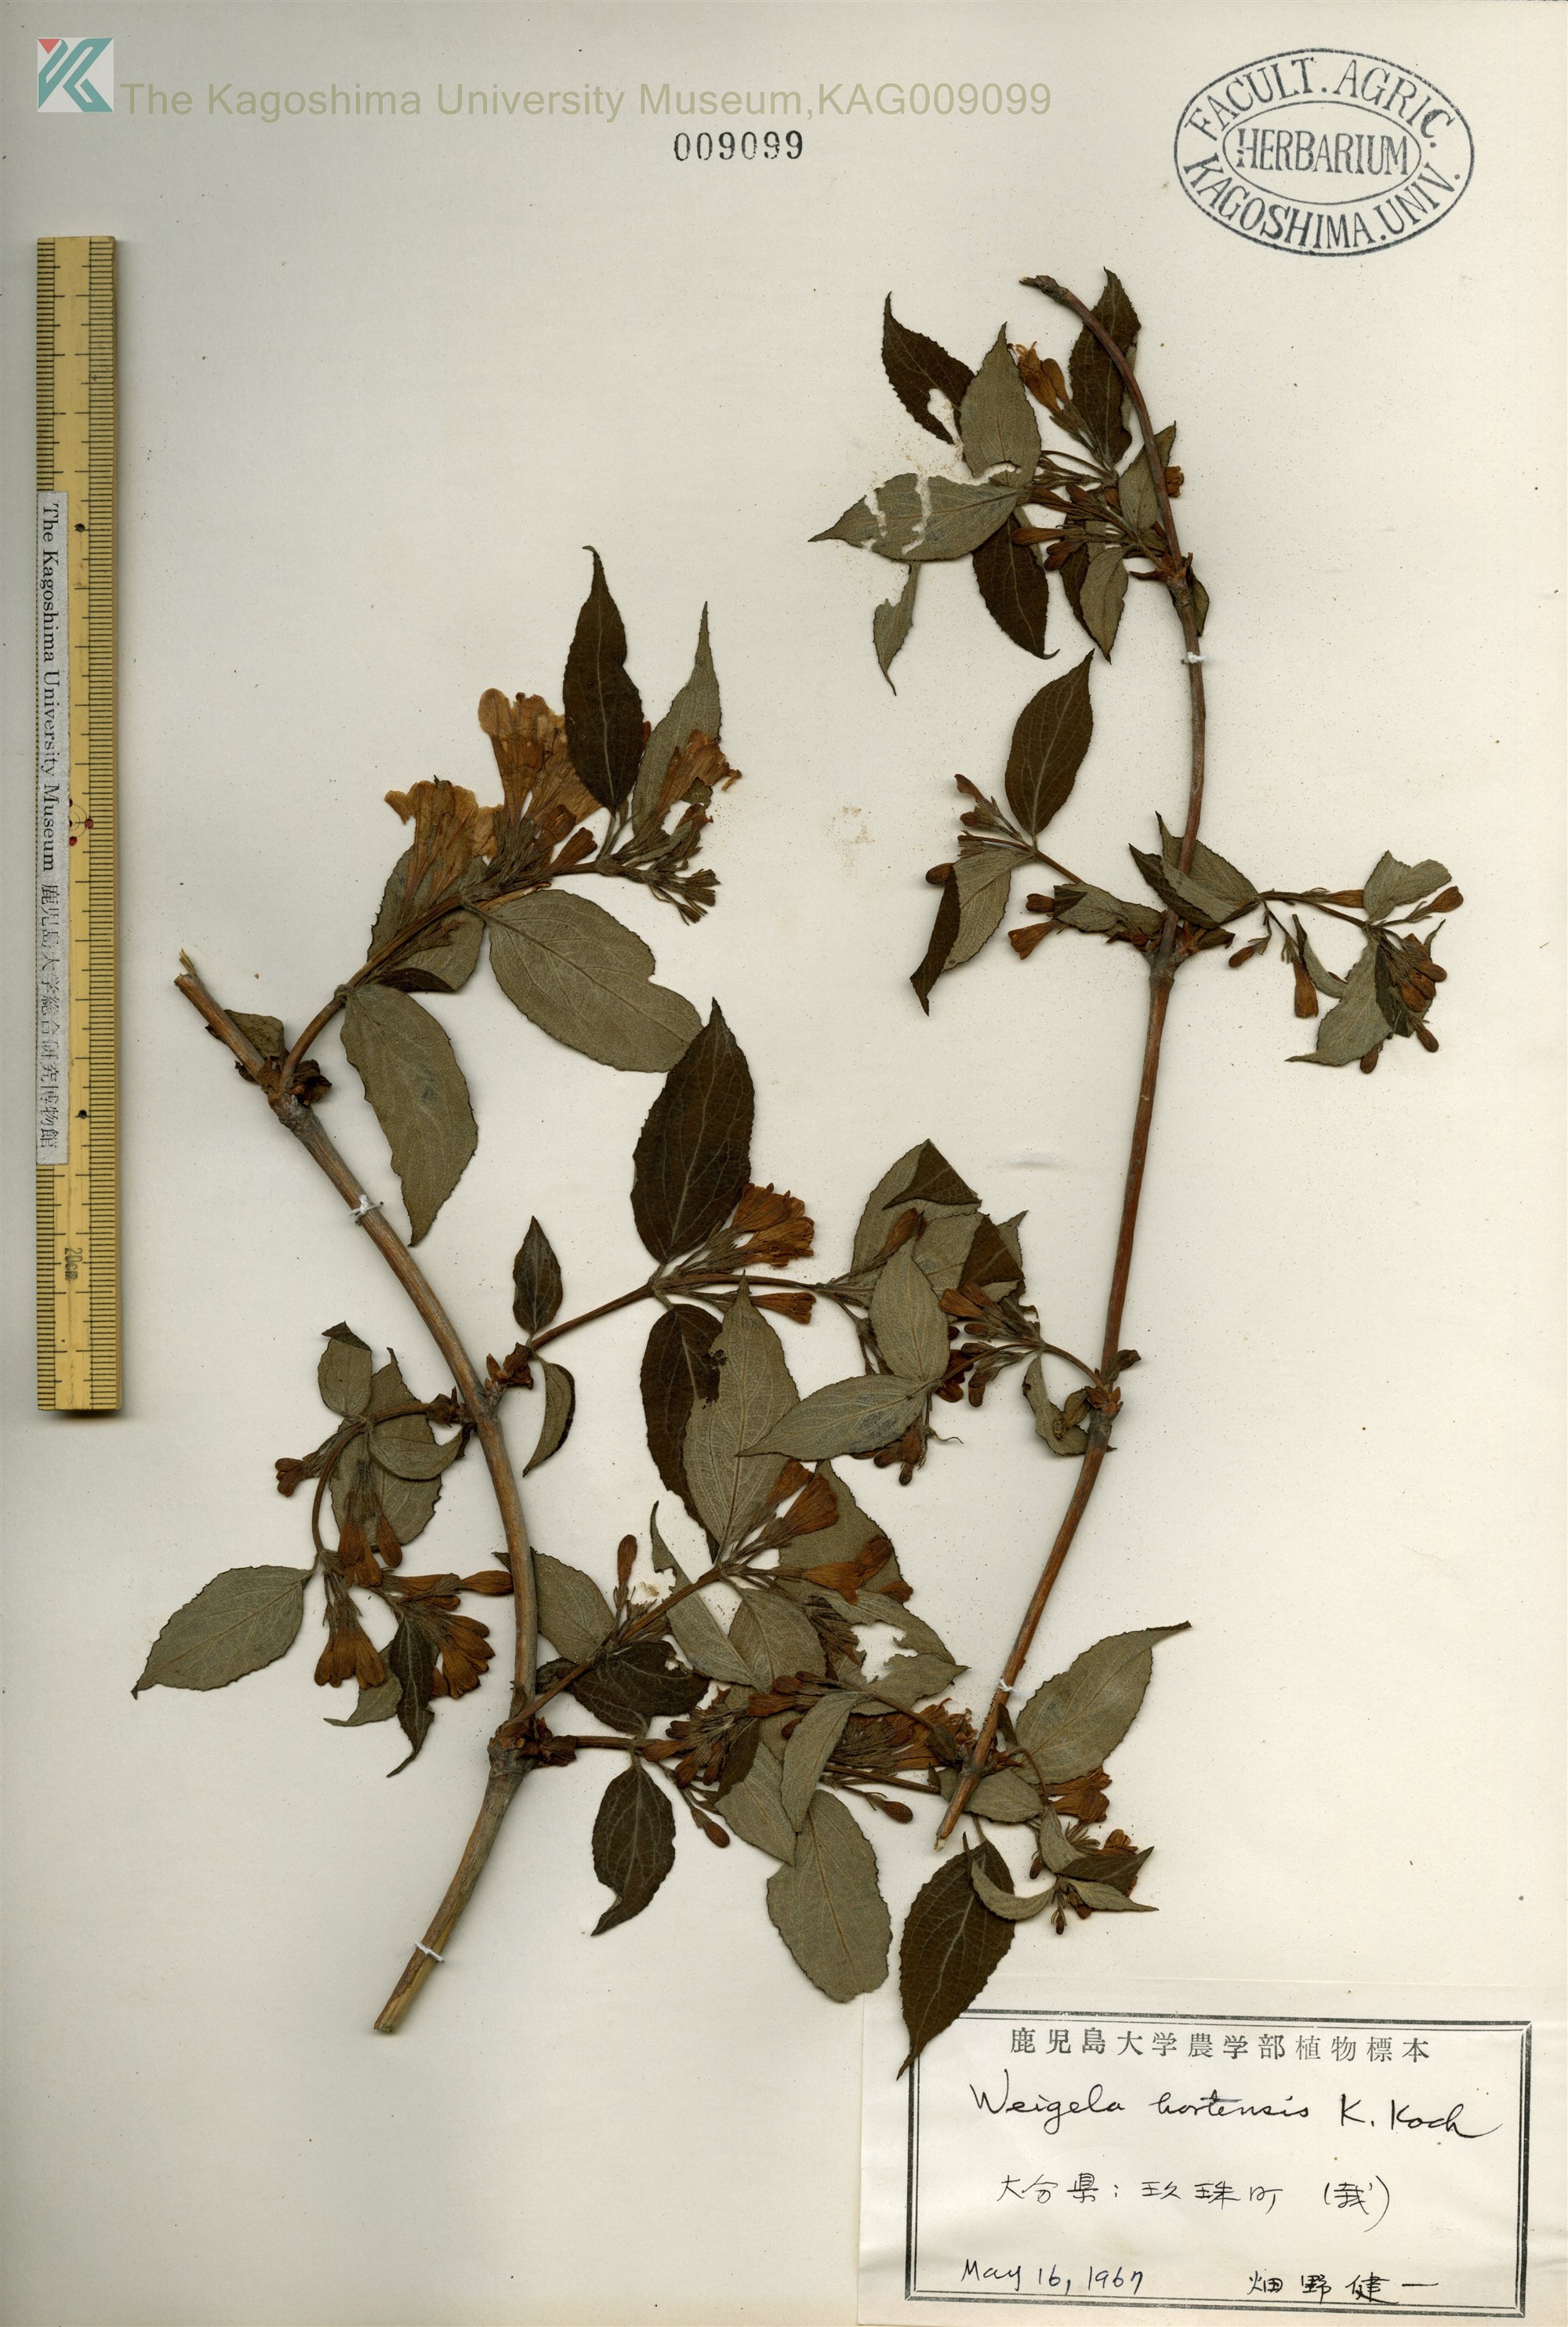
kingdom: Plantae
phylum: Tracheophyta
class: Magnoliopsida
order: Dipsacales
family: Caprifoliaceae
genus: Weigela
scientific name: Weigela hortensis
